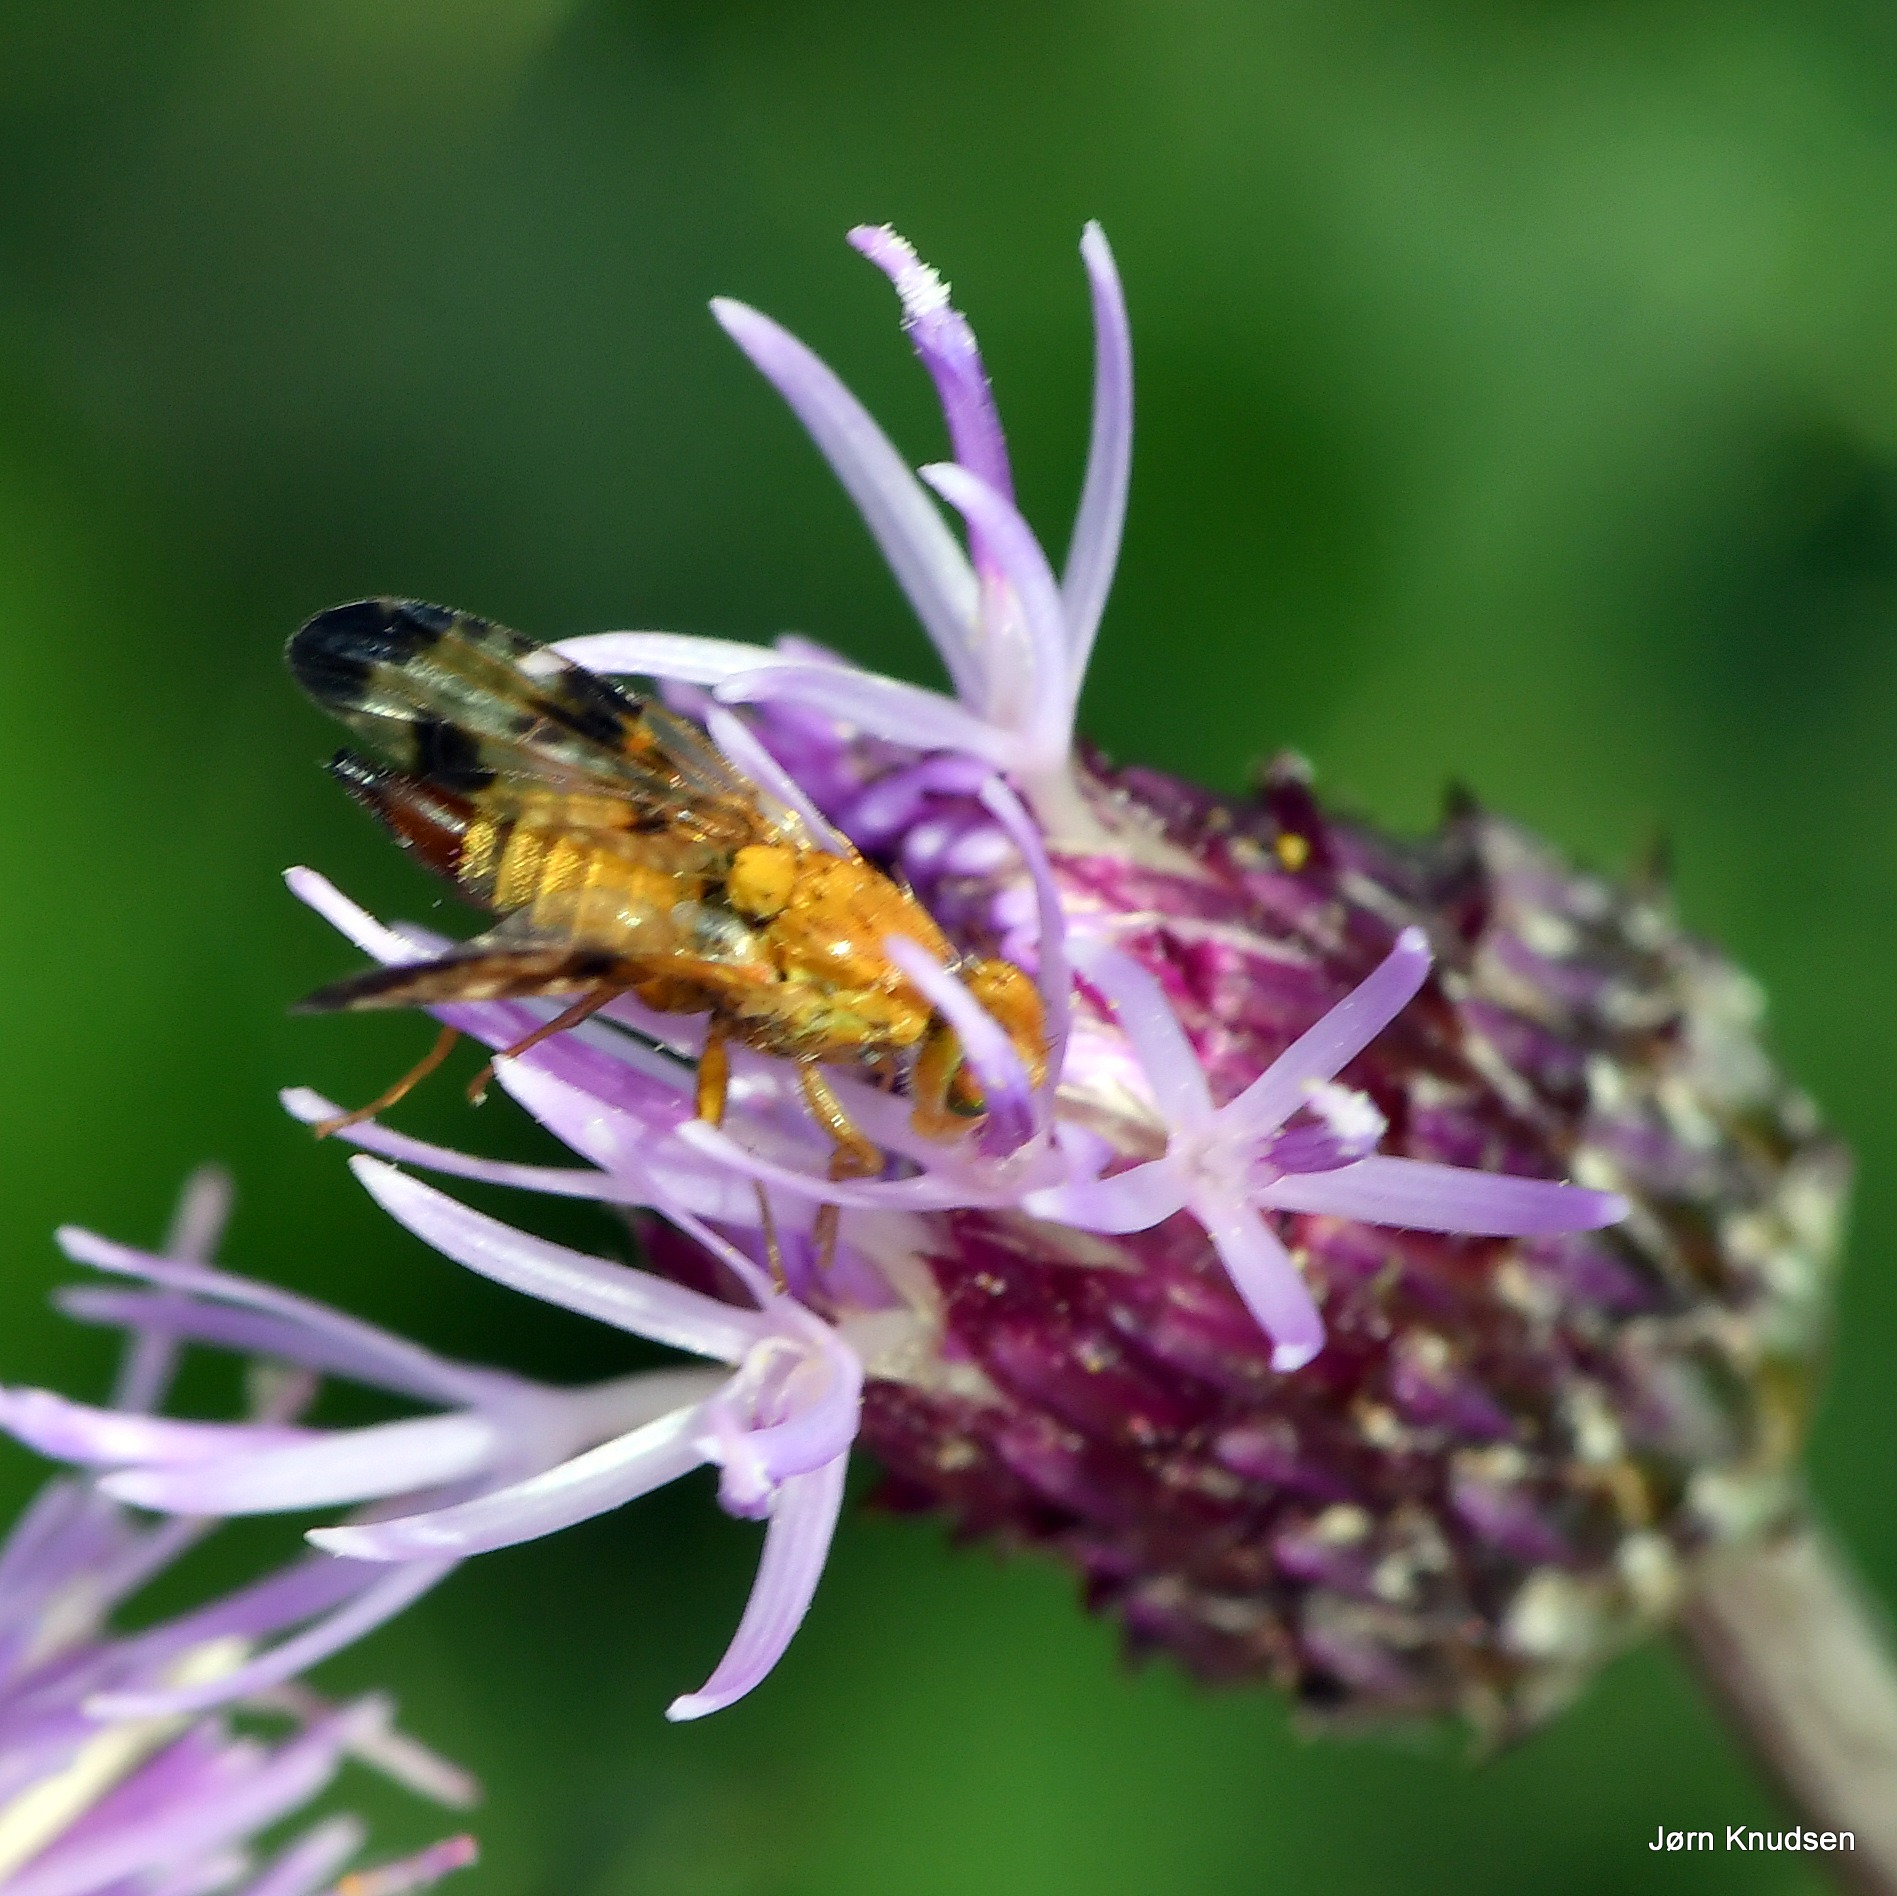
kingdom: Animalia
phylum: Arthropoda
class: Insecta
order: Diptera
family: Tephritidae
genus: Xyphosia
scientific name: Xyphosia miliaria
